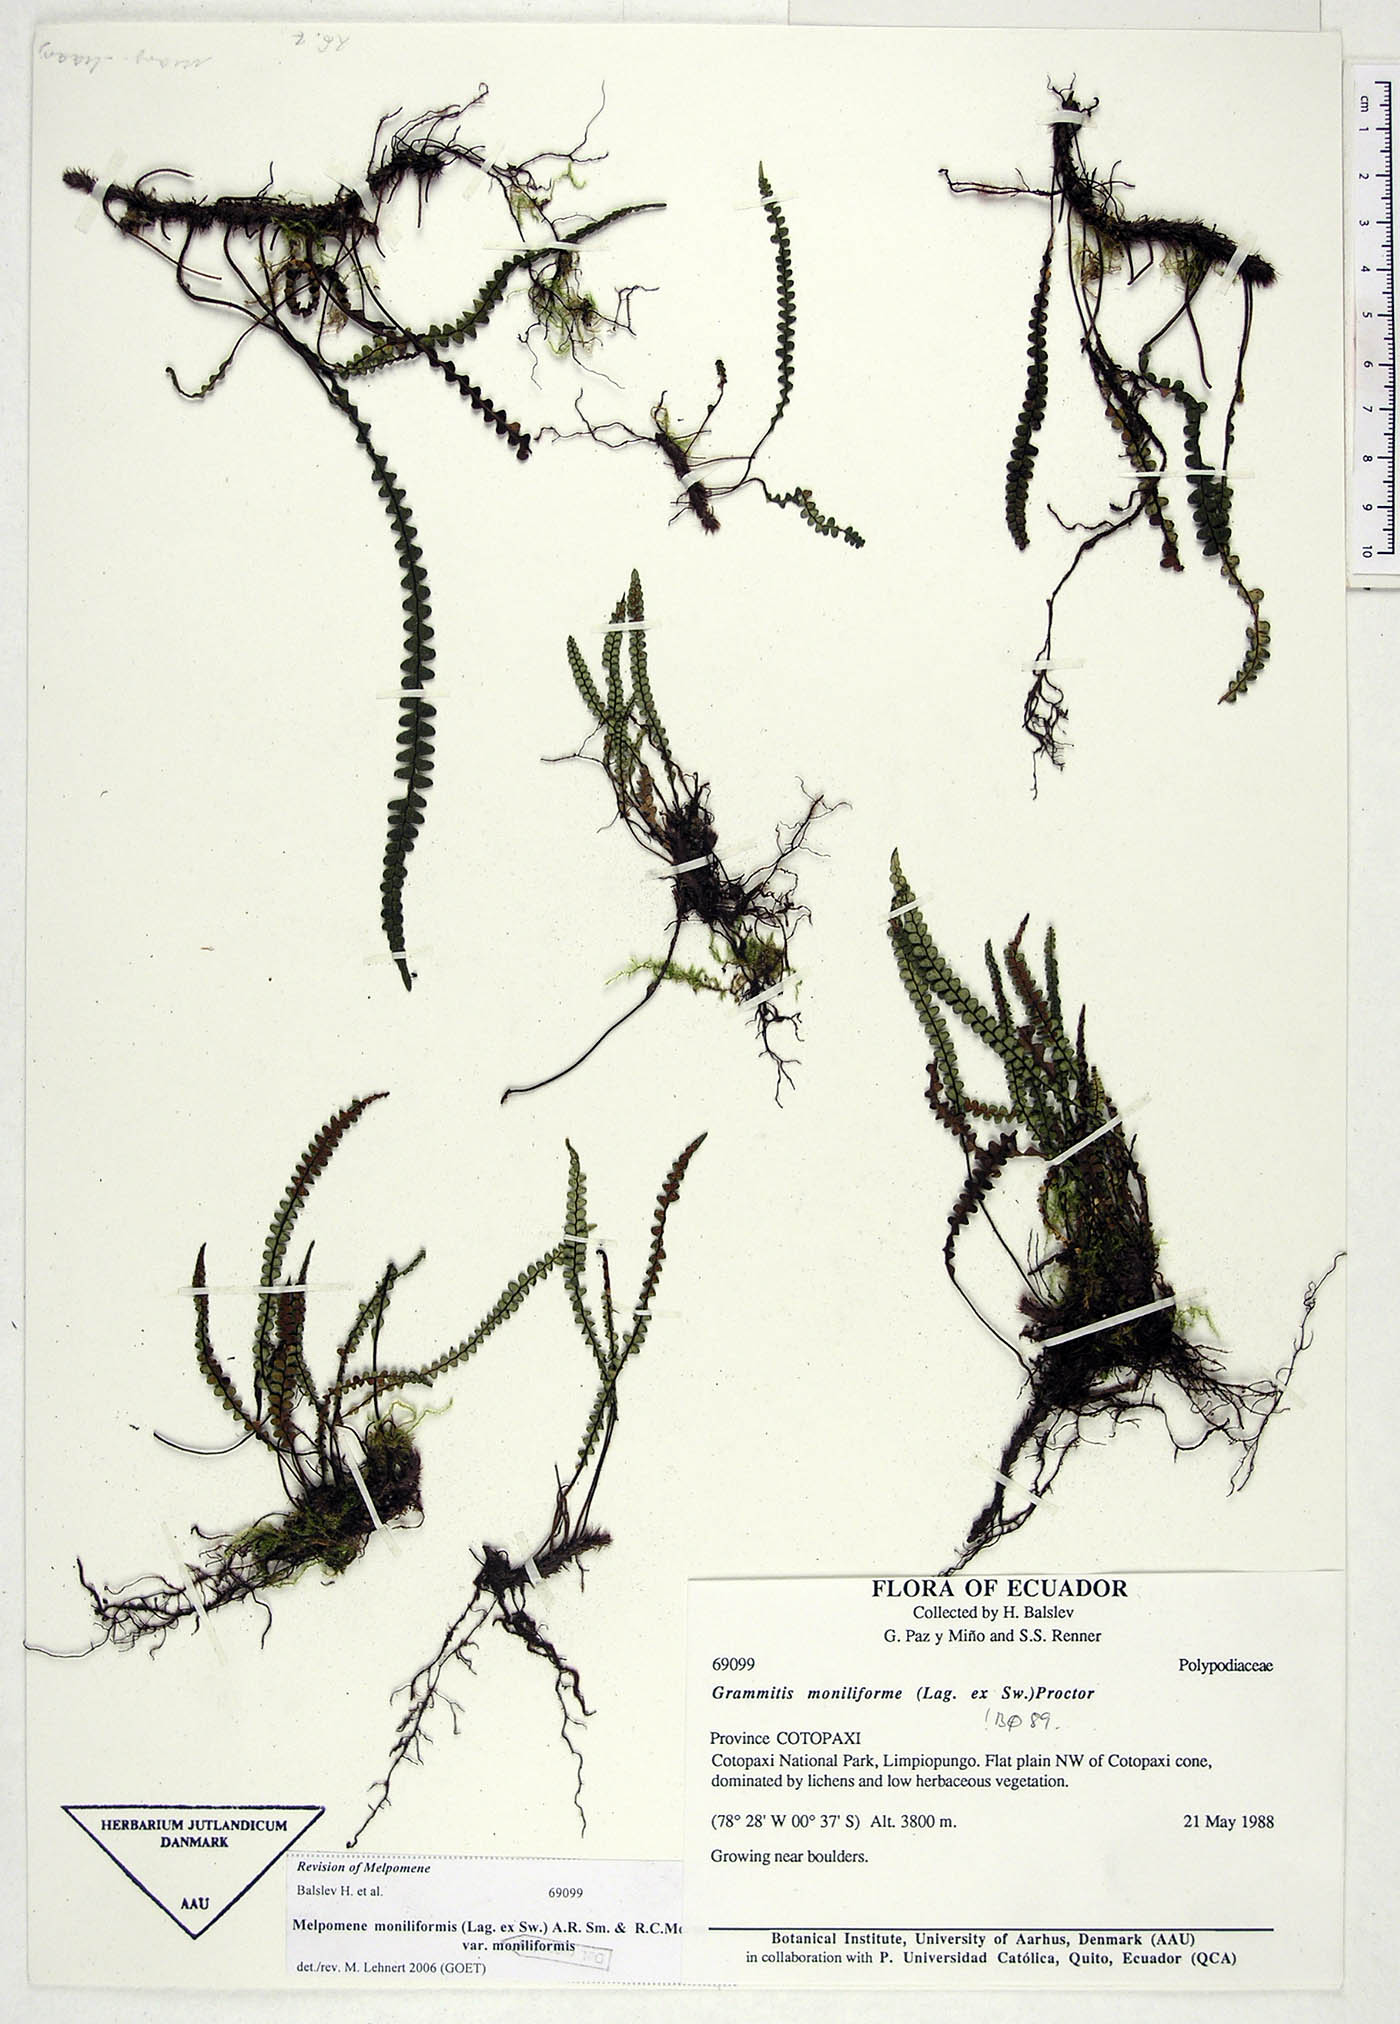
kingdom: Plantae
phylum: Tracheophyta
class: Polypodiopsida
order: Polypodiales
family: Polypodiaceae
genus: Melpomene
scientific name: Melpomene moniliformis
